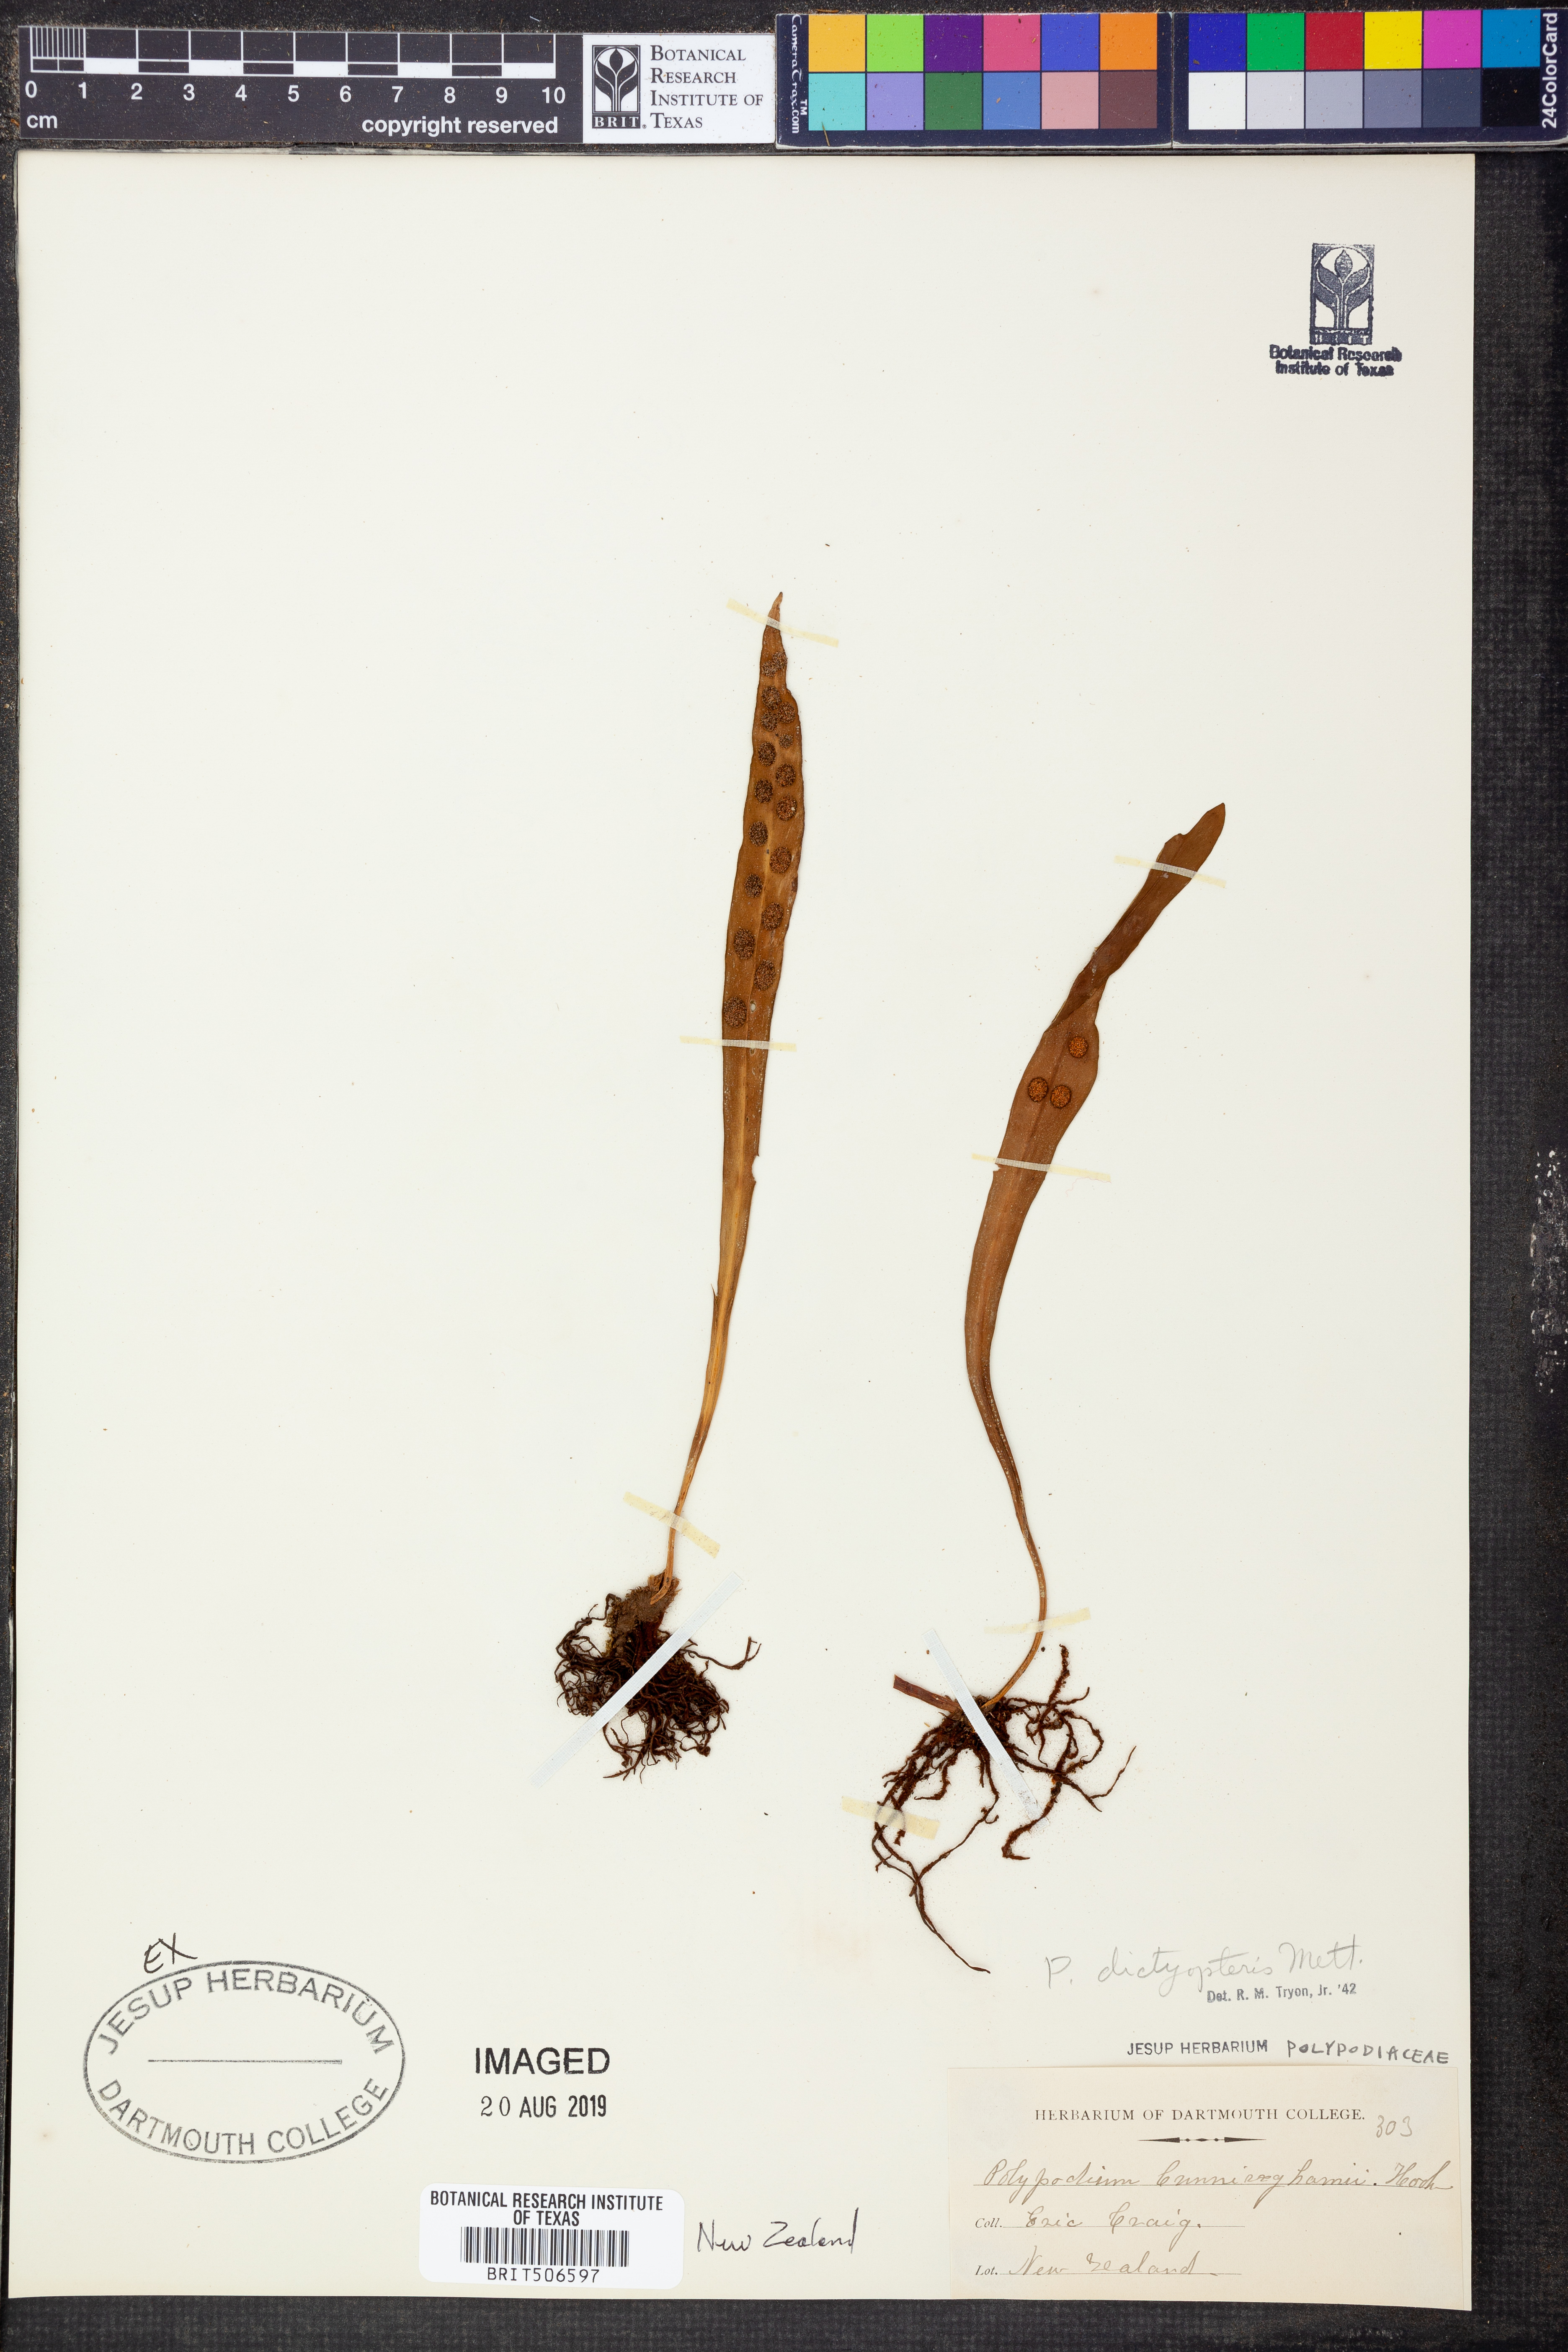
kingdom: Plantae
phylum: Tracheophyta
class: Polypodiopsida
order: Polypodiales
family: Polypodiaceae
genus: Loxogramme
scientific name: Loxogramme dictyopteris
